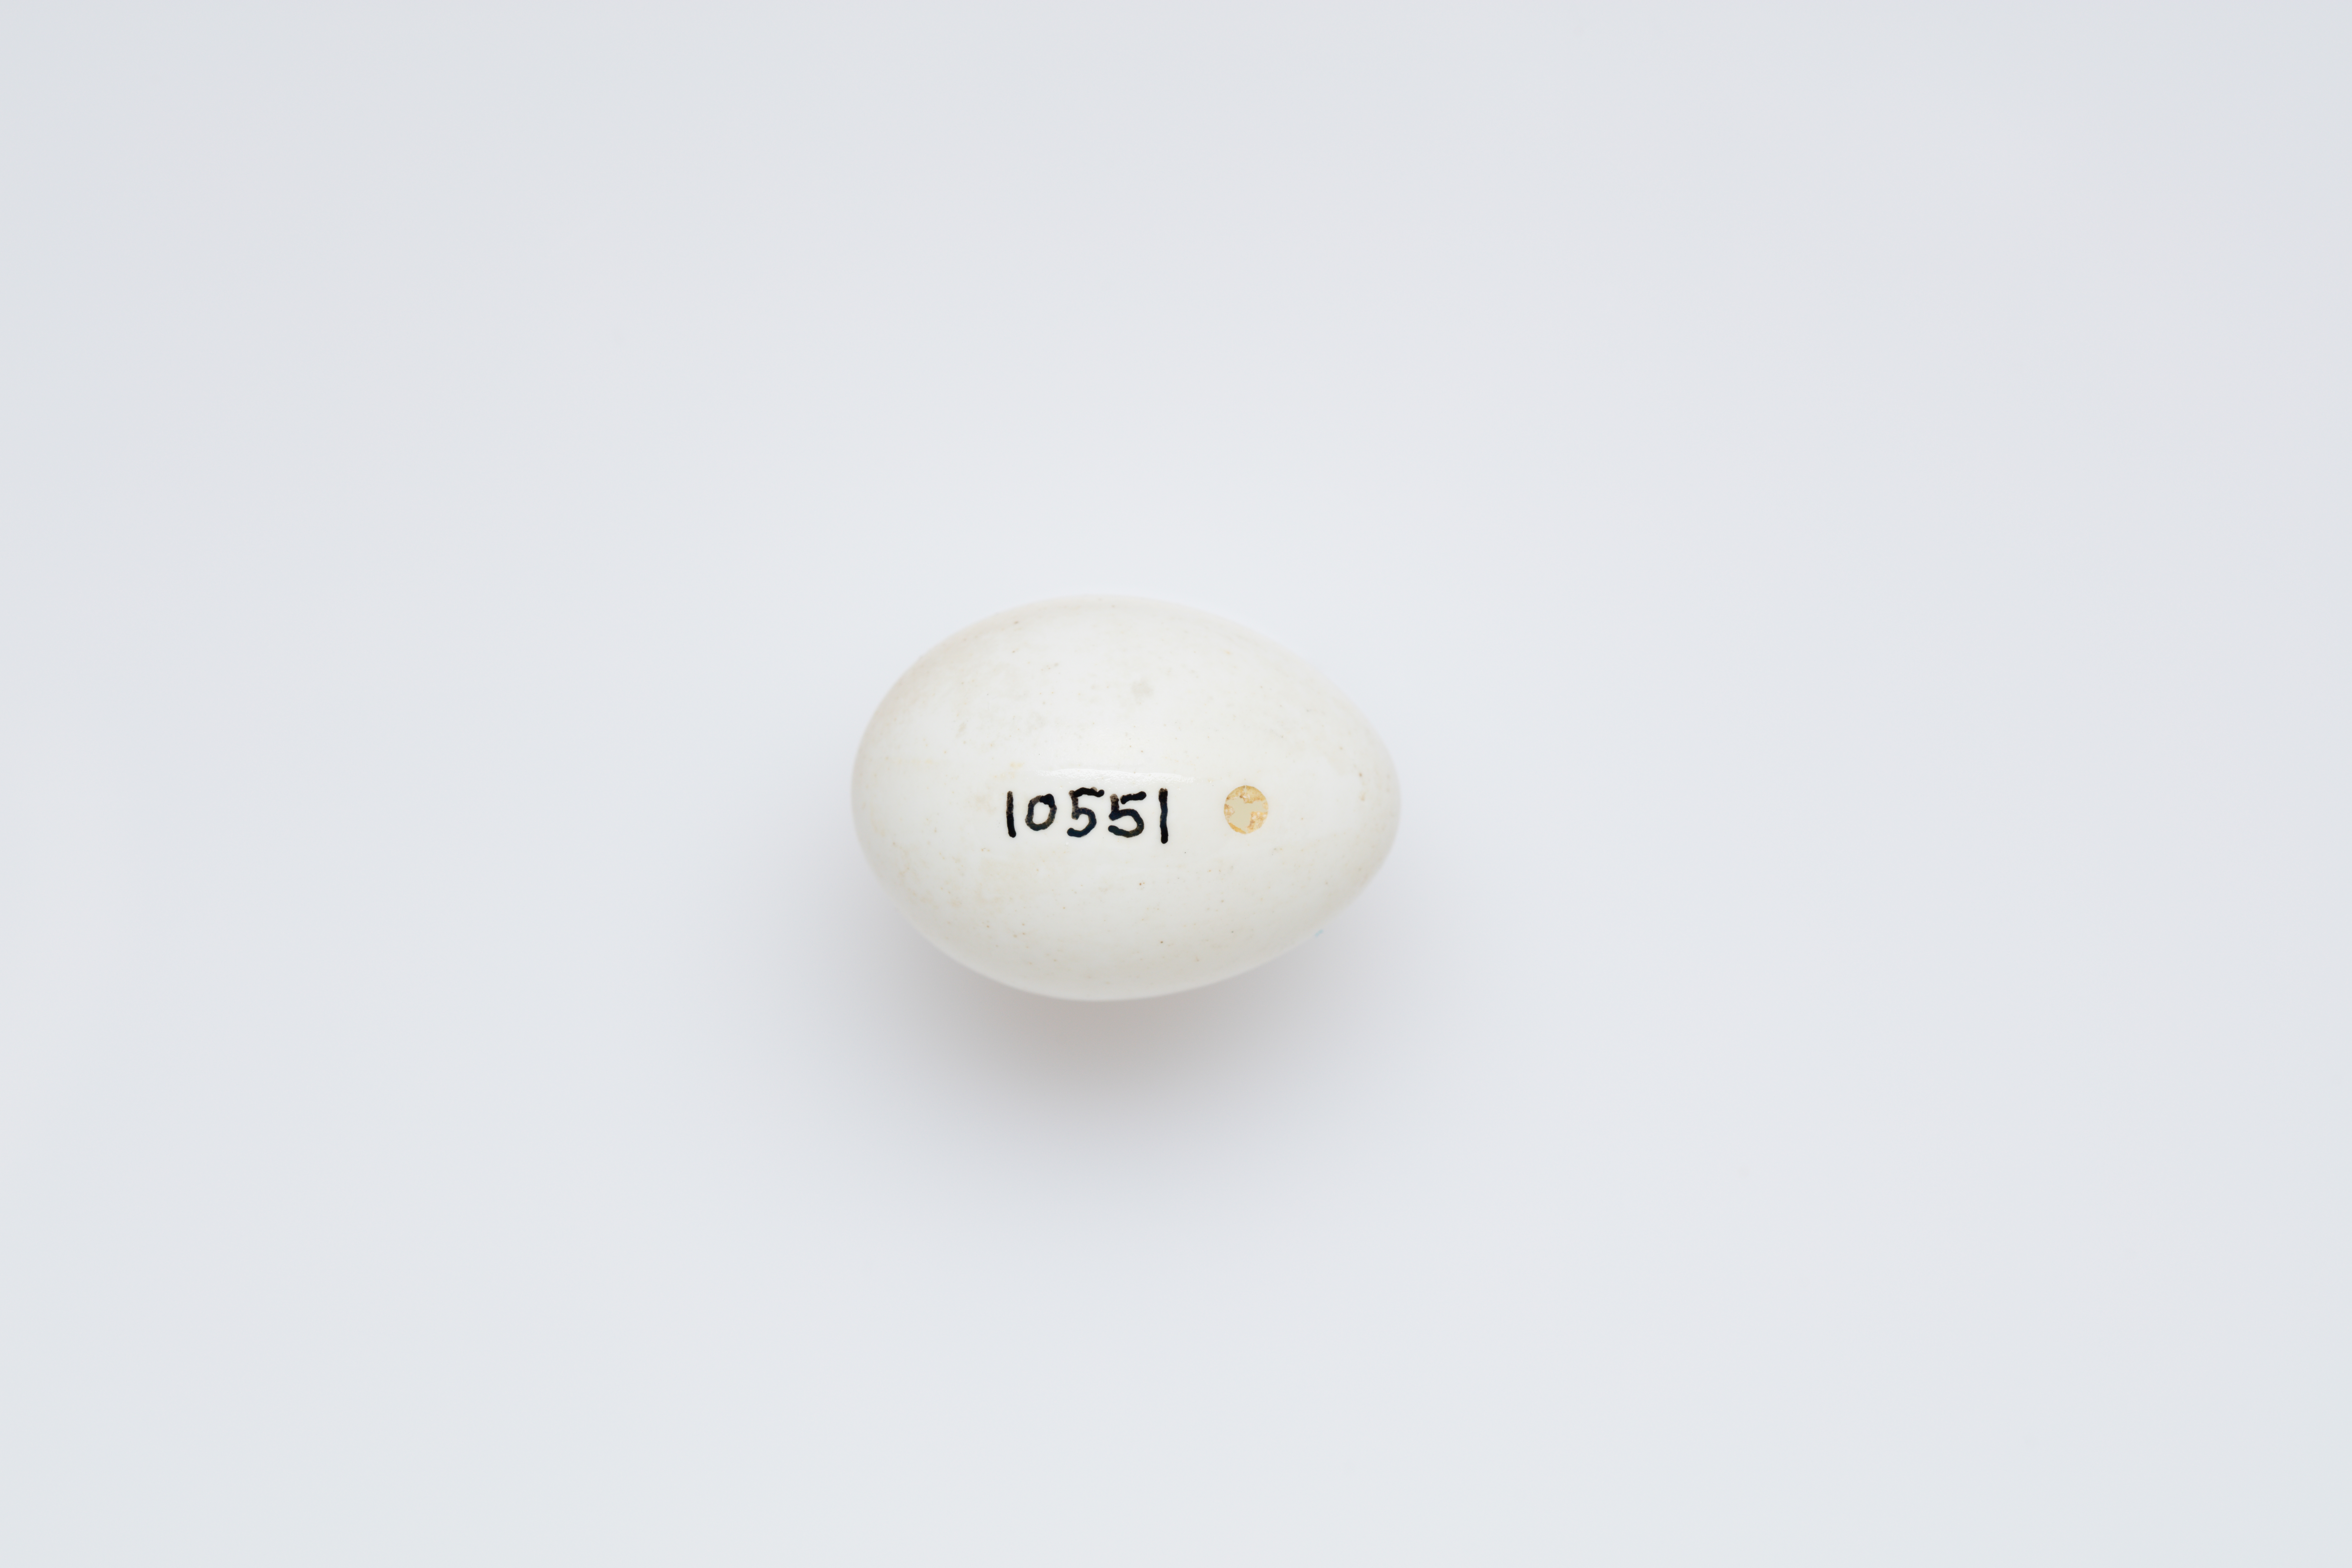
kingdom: Animalia
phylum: Chordata
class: Aves
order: Piciformes
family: Picidae
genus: Dendrocopos
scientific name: Dendrocopos major
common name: Great spotted woodpecker
